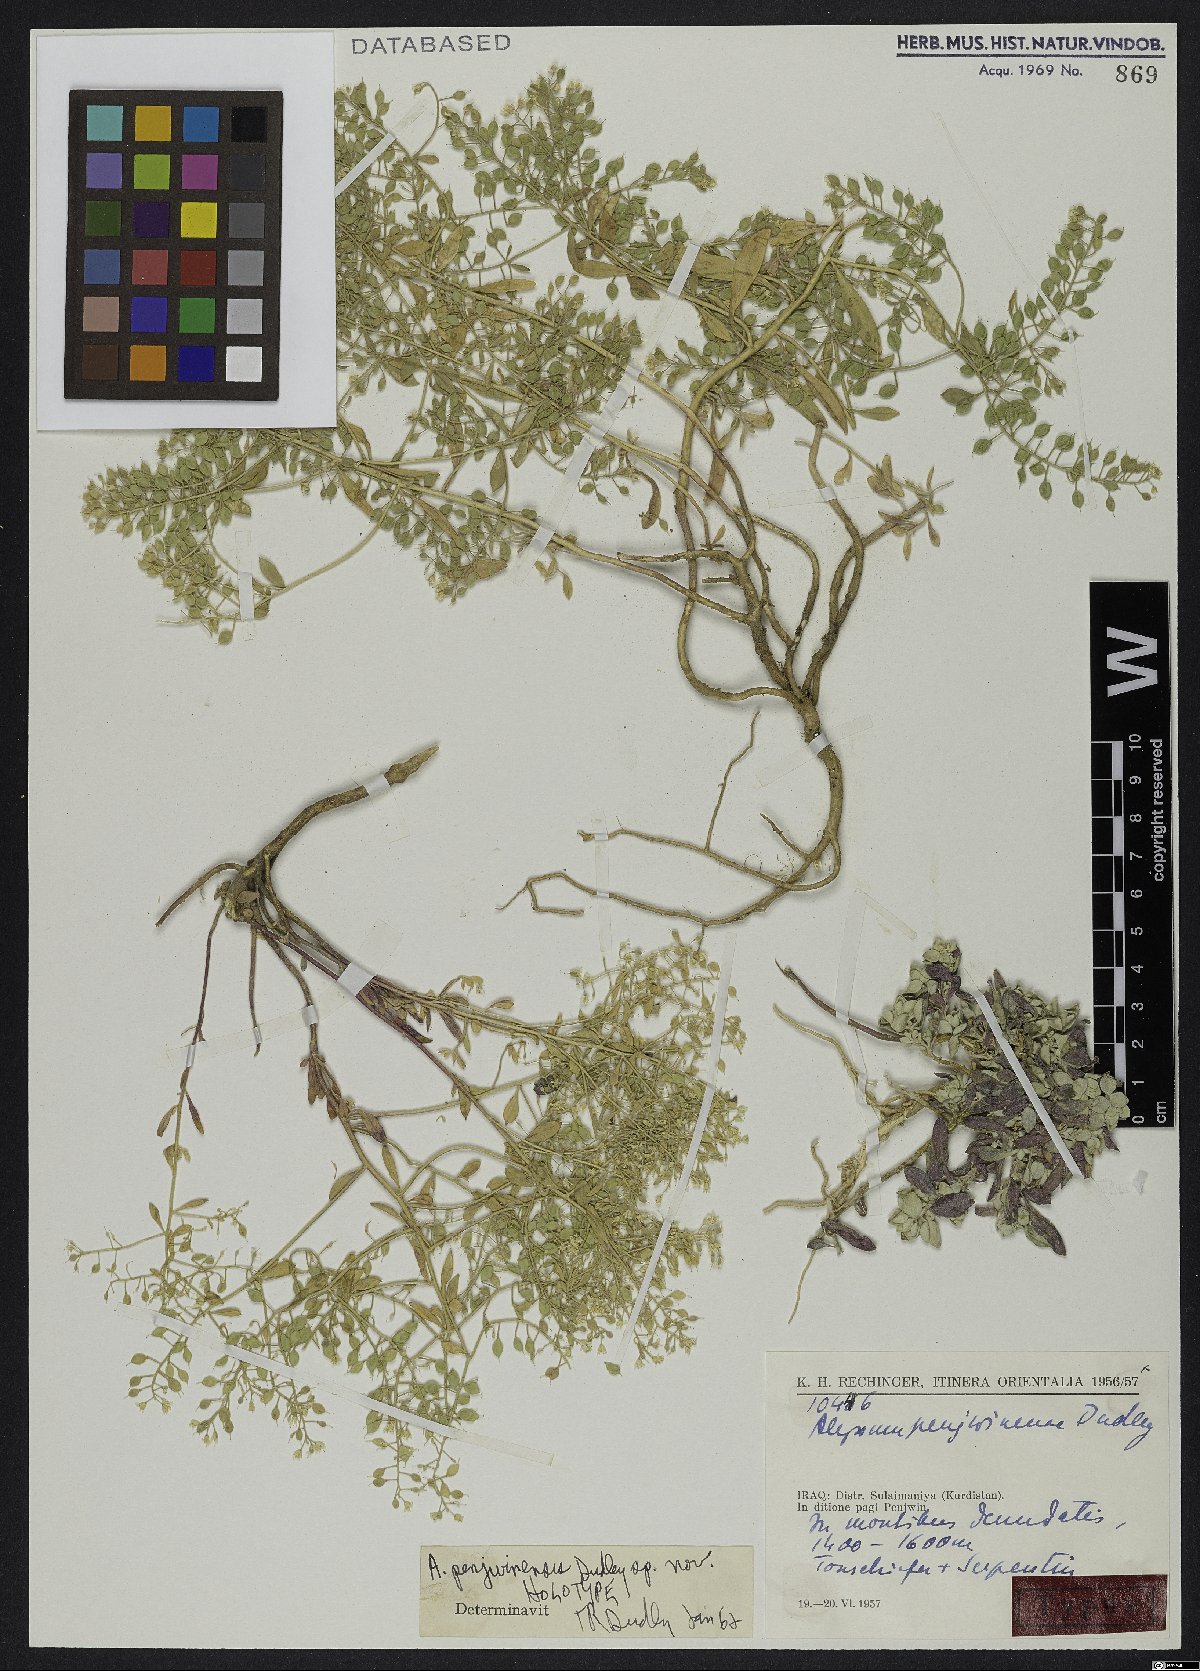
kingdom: Plantae
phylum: Tracheophyta
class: Magnoliopsida
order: Brassicales
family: Brassicaceae
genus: Odontarrhena
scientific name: Odontarrhena penjwinensis
